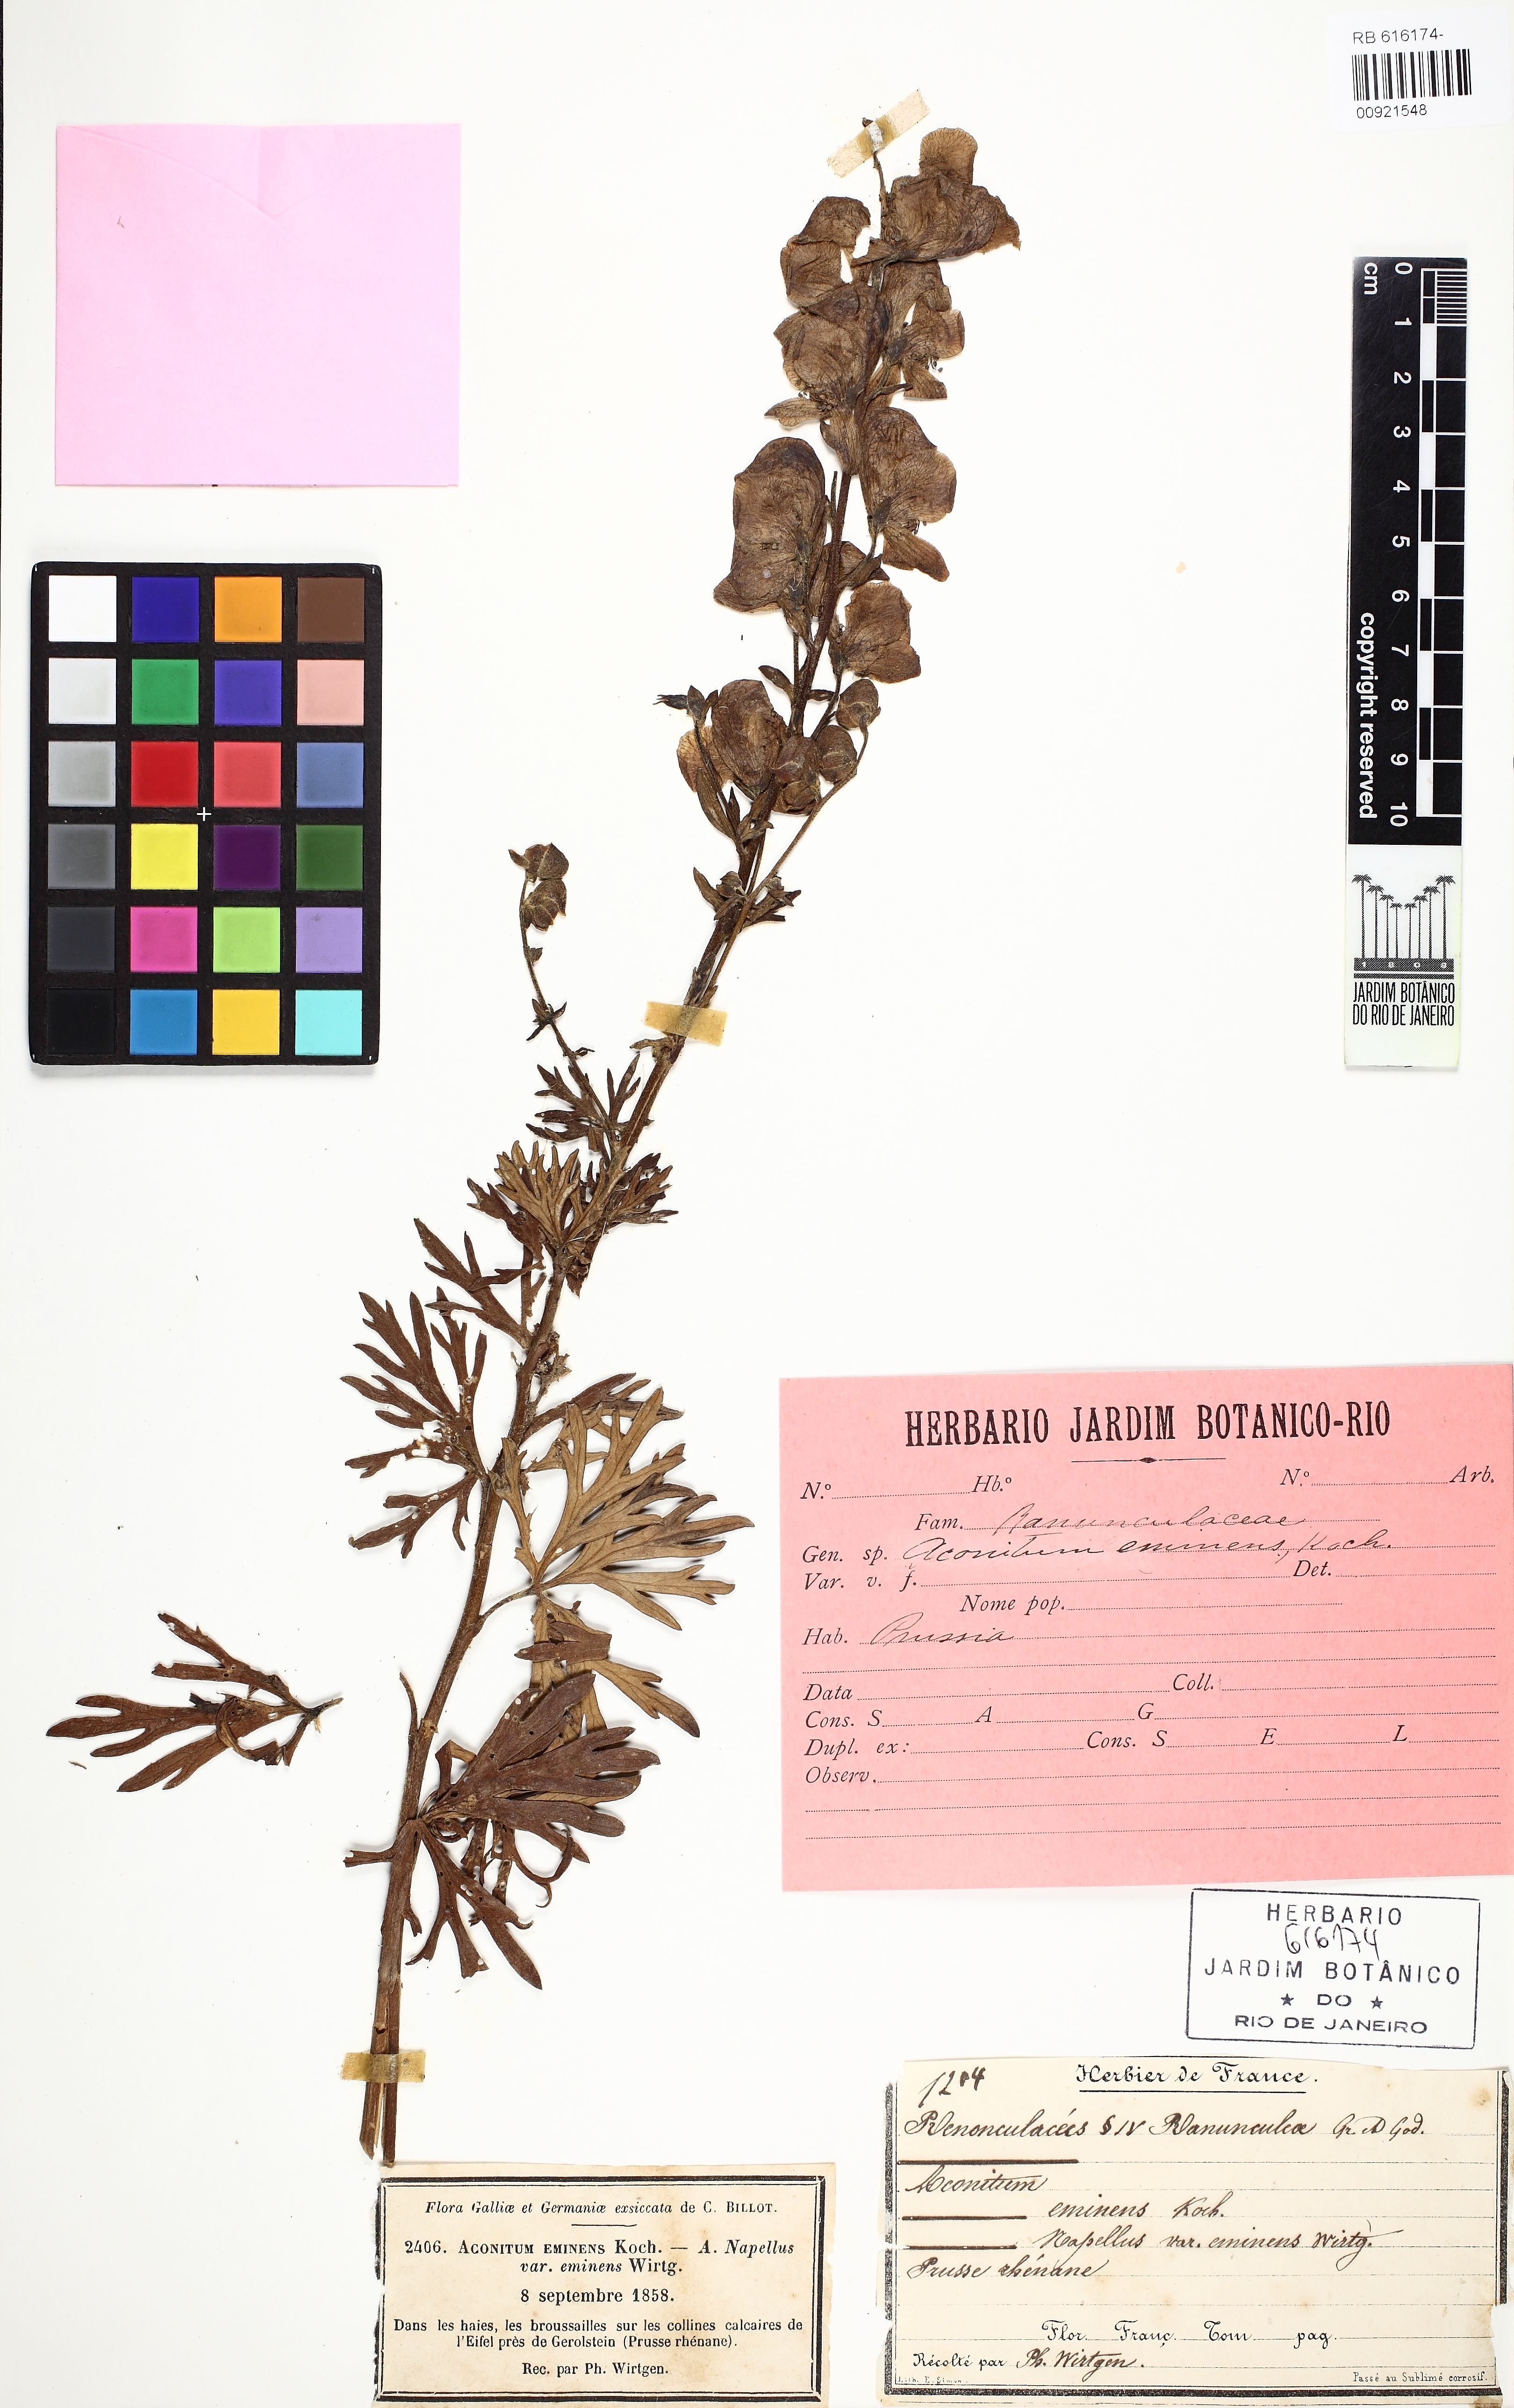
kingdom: Plantae
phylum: Tracheophyta
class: Magnoliopsida
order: Ranunculales
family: Ranunculaceae
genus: Aconitum
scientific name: Aconitum napellus
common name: Garden monkshood
